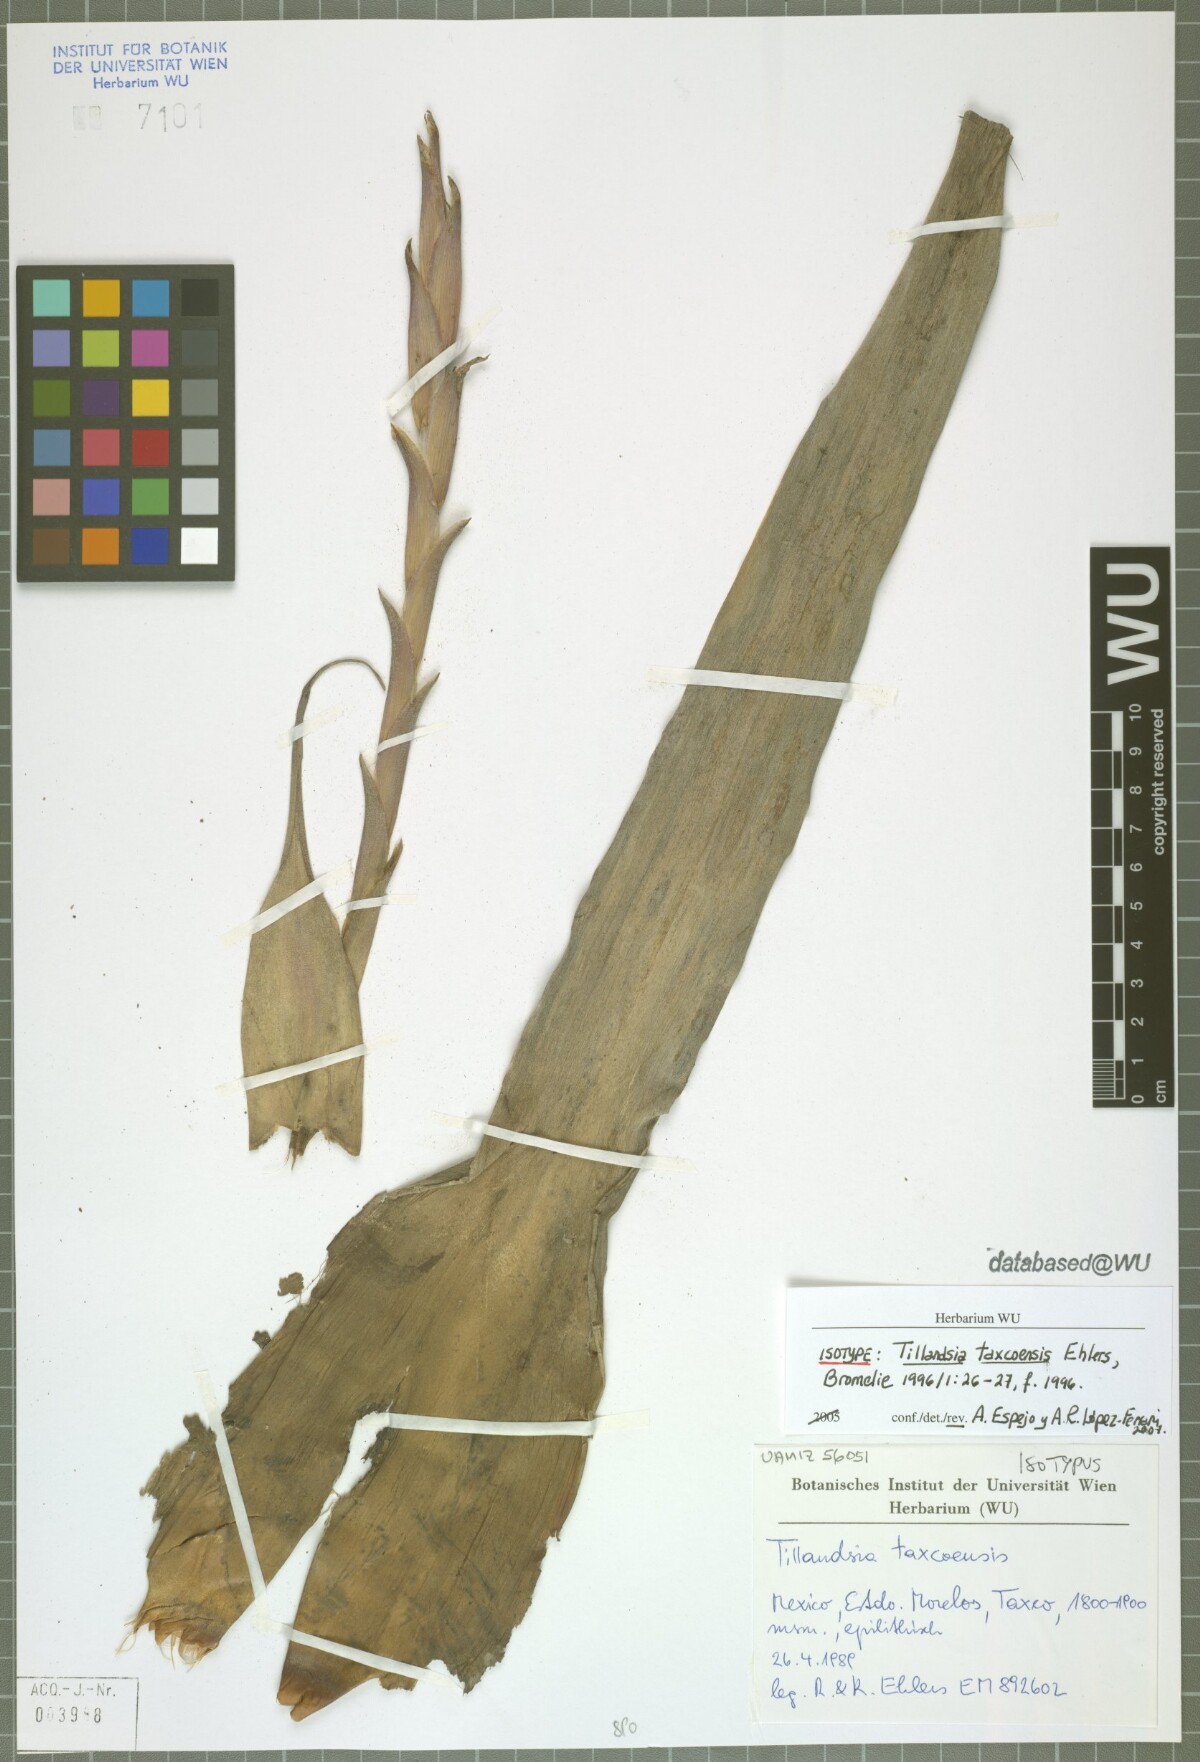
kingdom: Plantae
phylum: Tracheophyta
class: Liliopsida
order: Poales
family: Bromeliaceae
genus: Tillandsia
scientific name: Tillandsia taxcoensis
